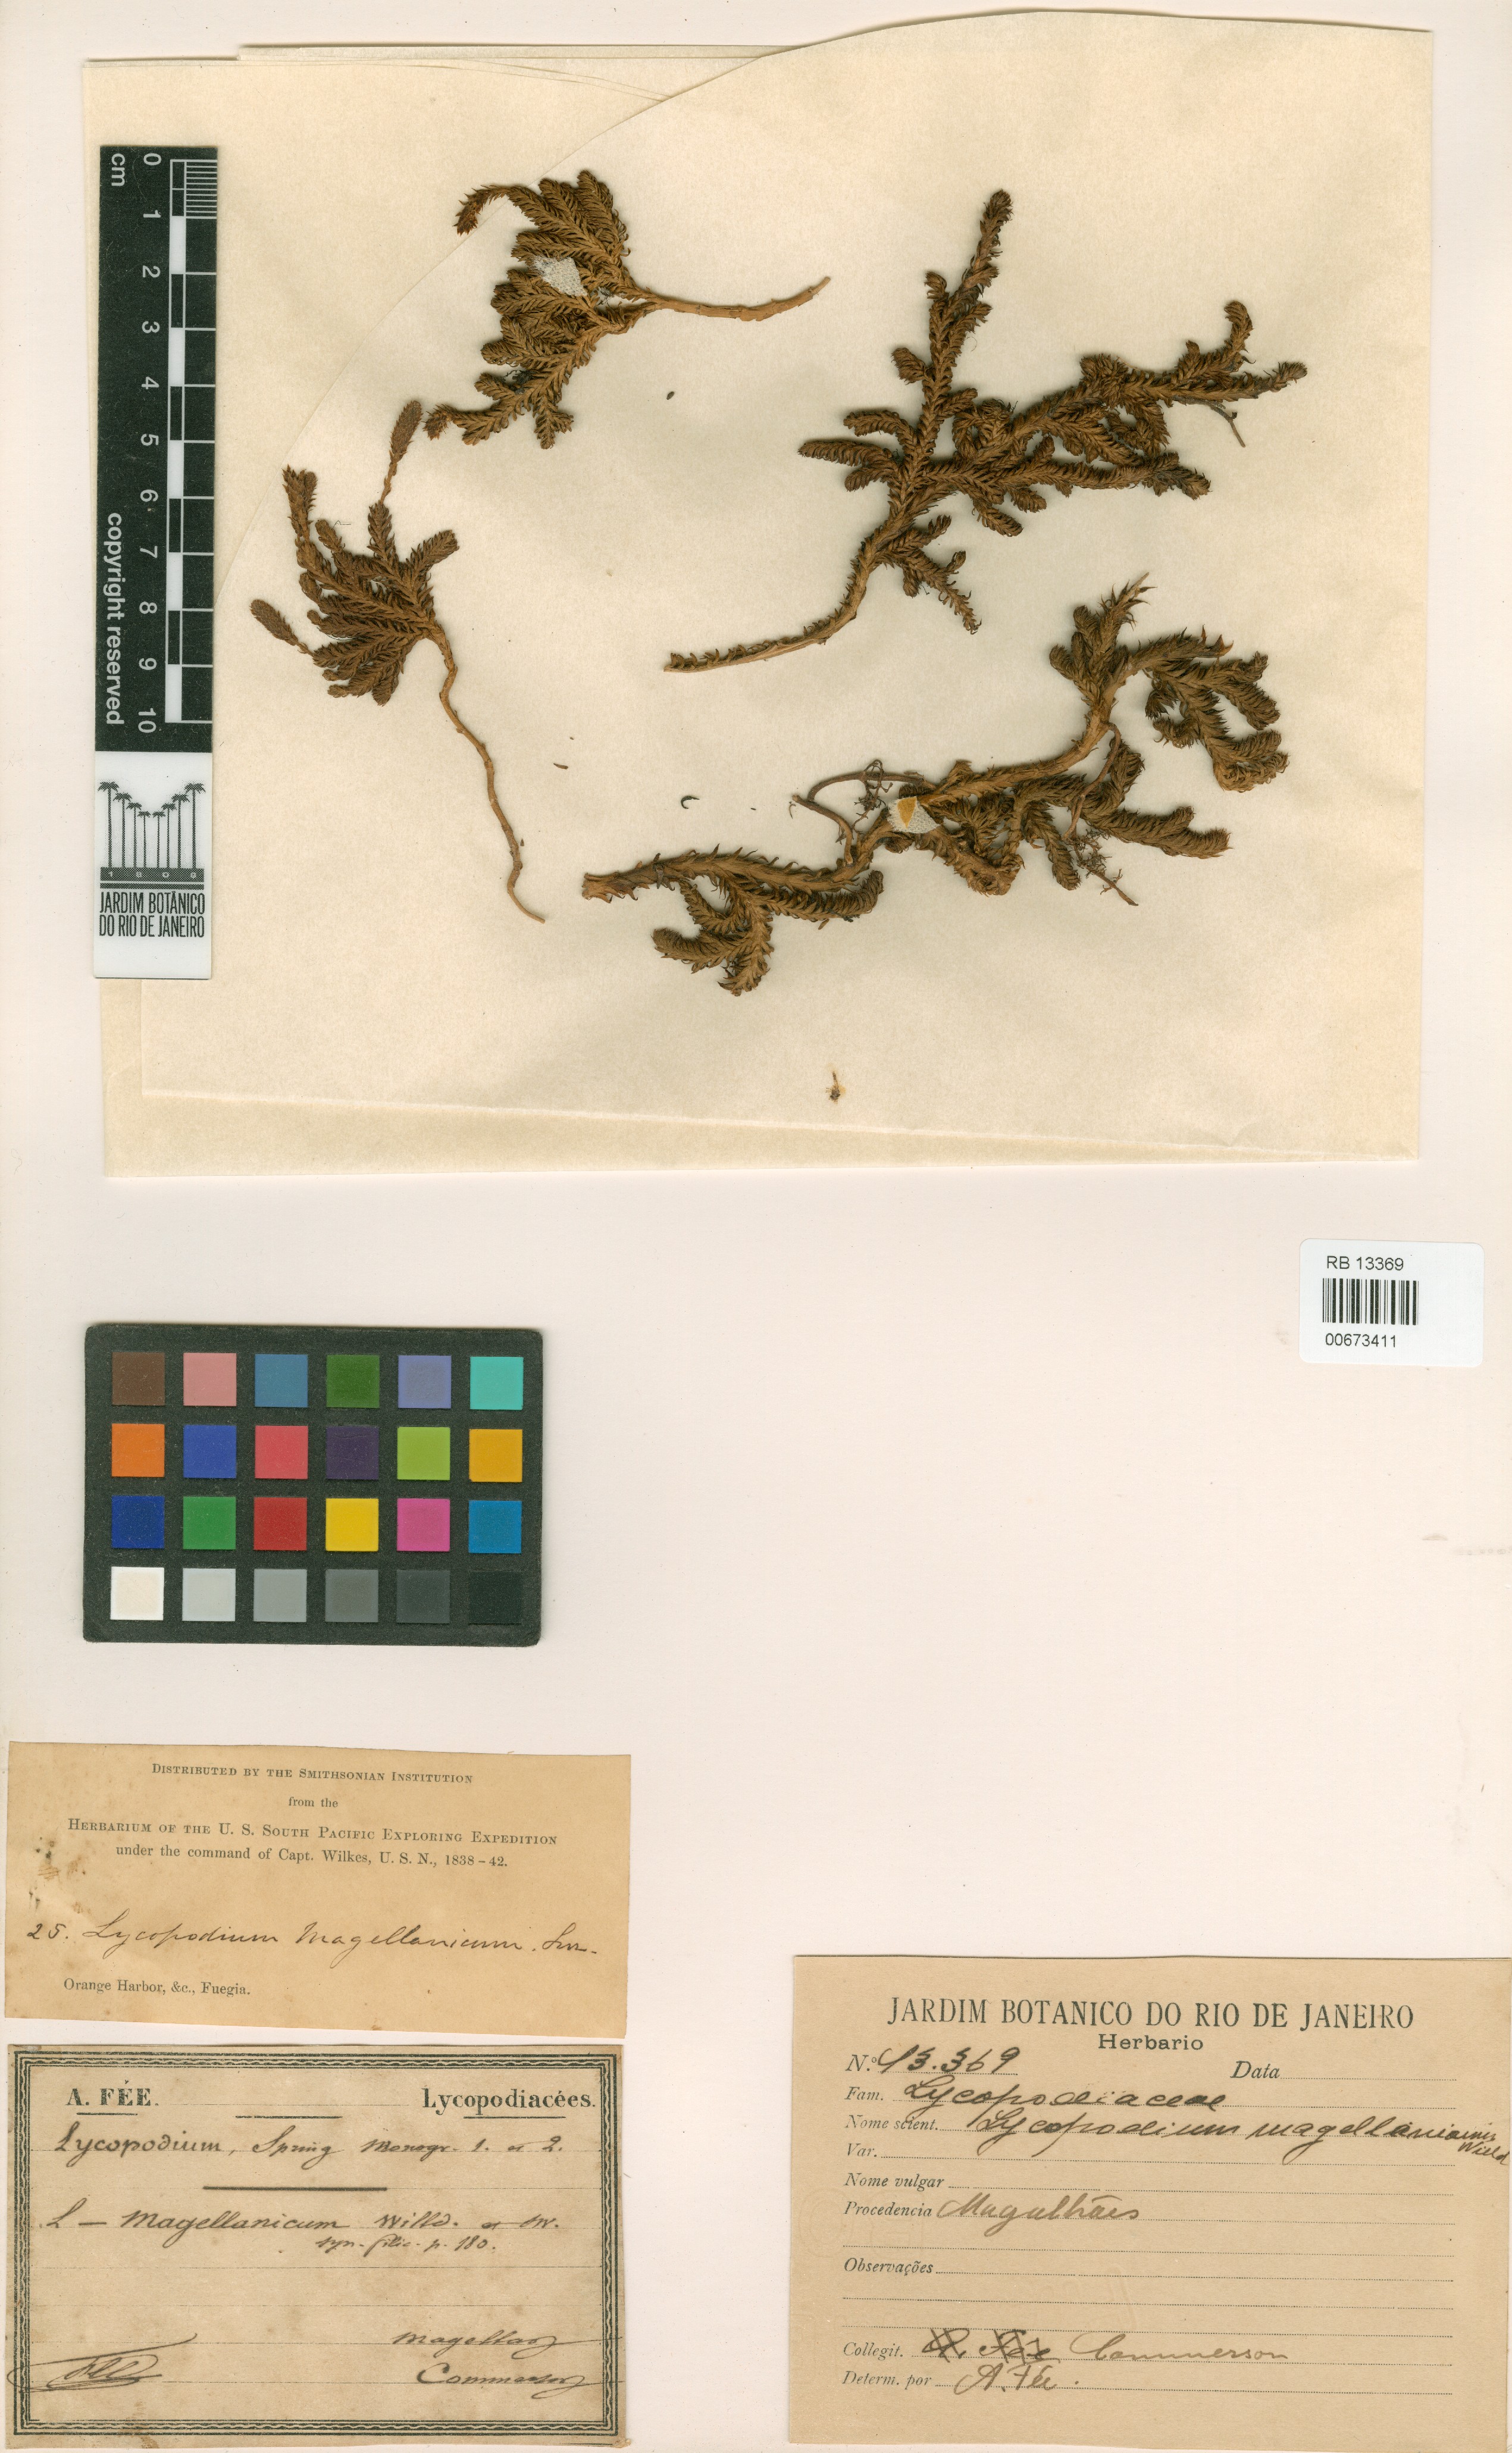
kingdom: Plantae
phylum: Tracheophyta
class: Lycopodiopsida
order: Lycopodiales
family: Lycopodiaceae
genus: Austrolycopodium
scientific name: Austrolycopodium magellanicum
